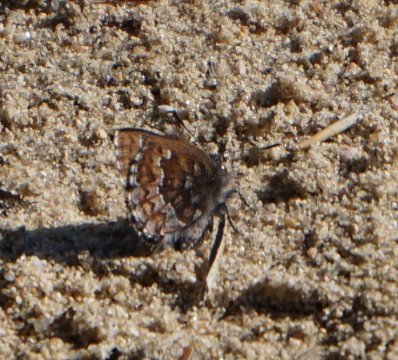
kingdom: Animalia
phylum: Arthropoda
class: Insecta
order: Lepidoptera
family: Lycaenidae
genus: Incisalia
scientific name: Incisalia niphon
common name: Eastern Pine Elfin
